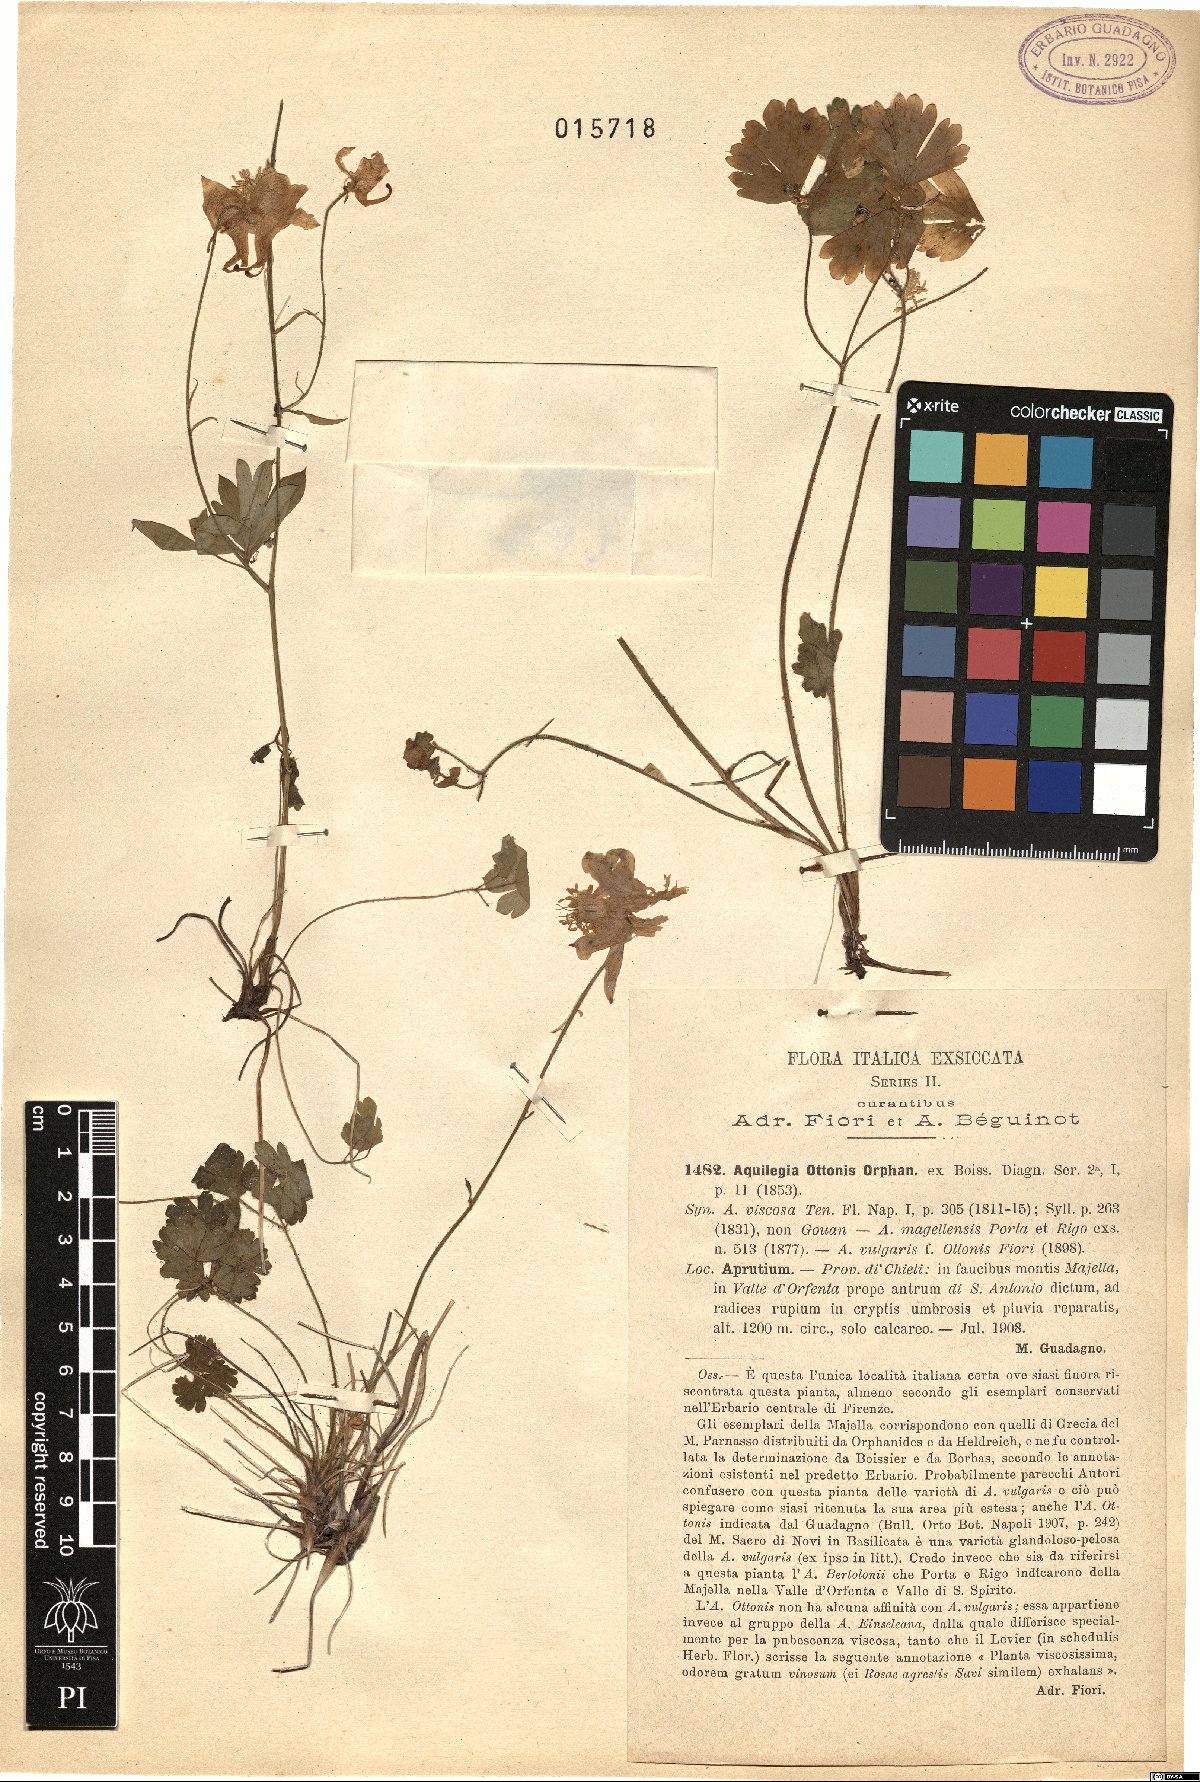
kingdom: Plantae
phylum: Tracheophyta
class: Magnoliopsida
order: Ranunculales
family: Ranunculaceae
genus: Aquilegia
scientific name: Aquilegia magellensis
